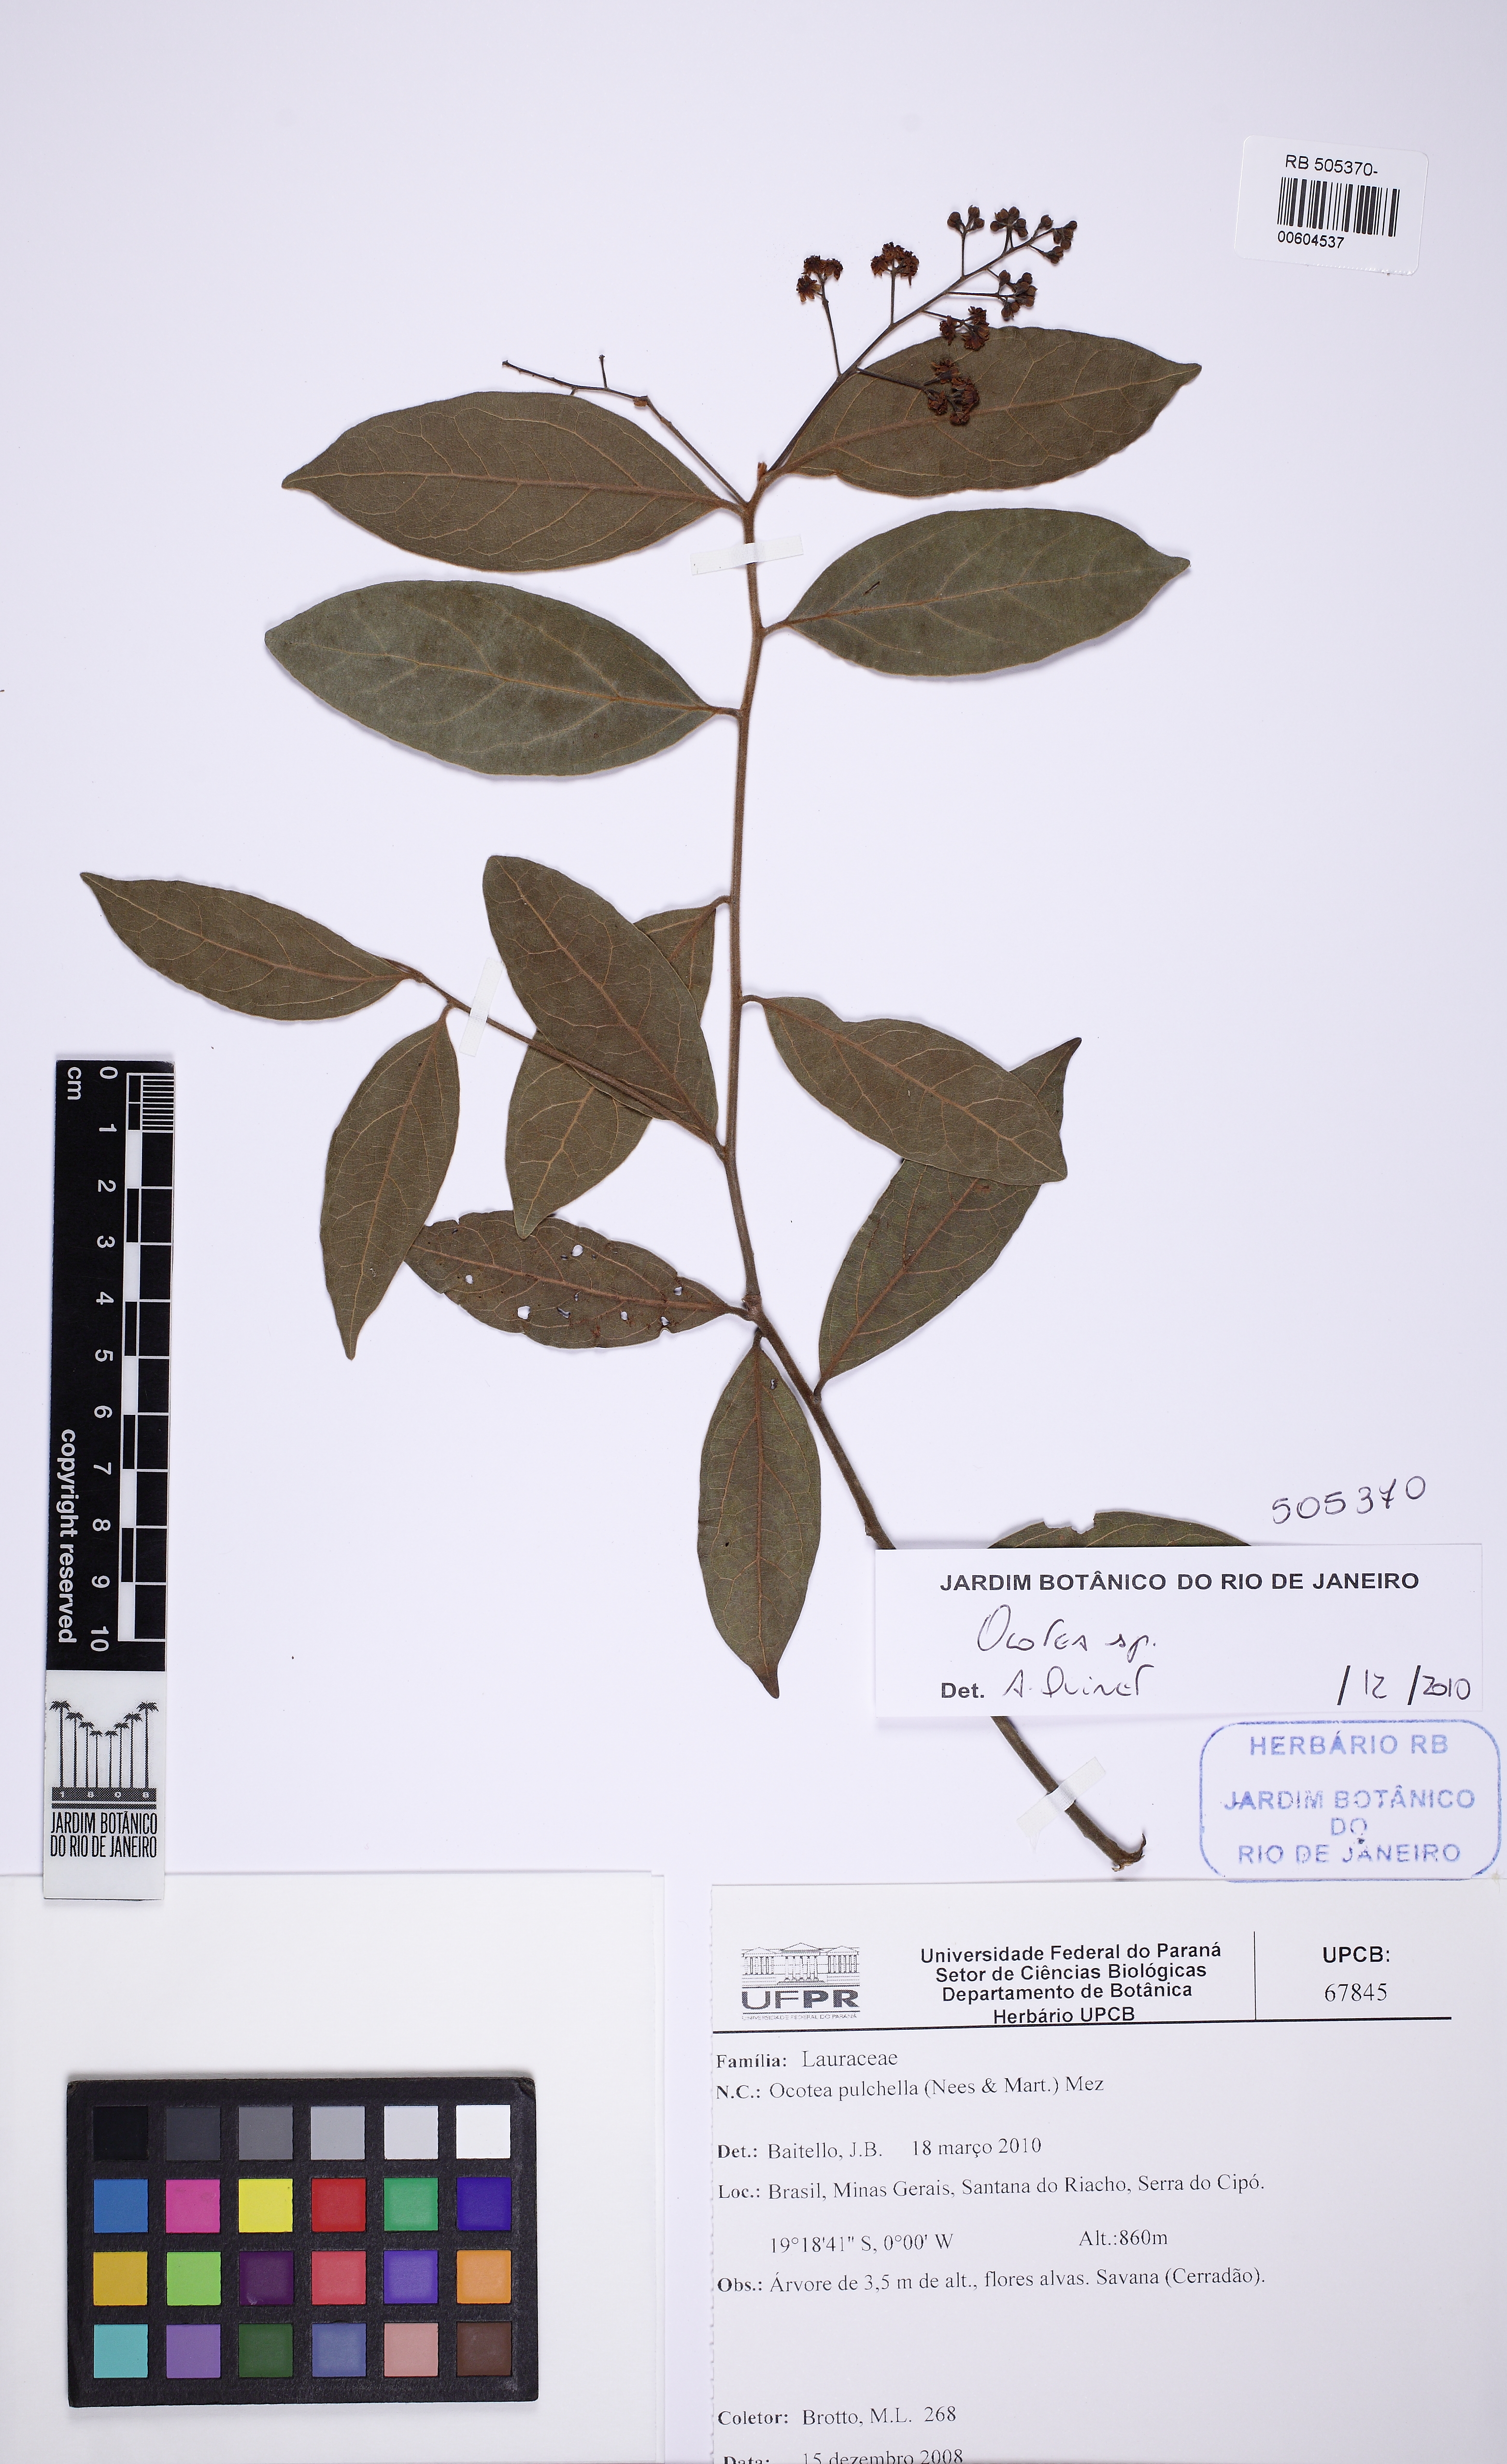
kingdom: Plantae
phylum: Tracheophyta
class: Magnoliopsida
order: Laurales
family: Lauraceae
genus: Ocotea
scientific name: Ocotea
